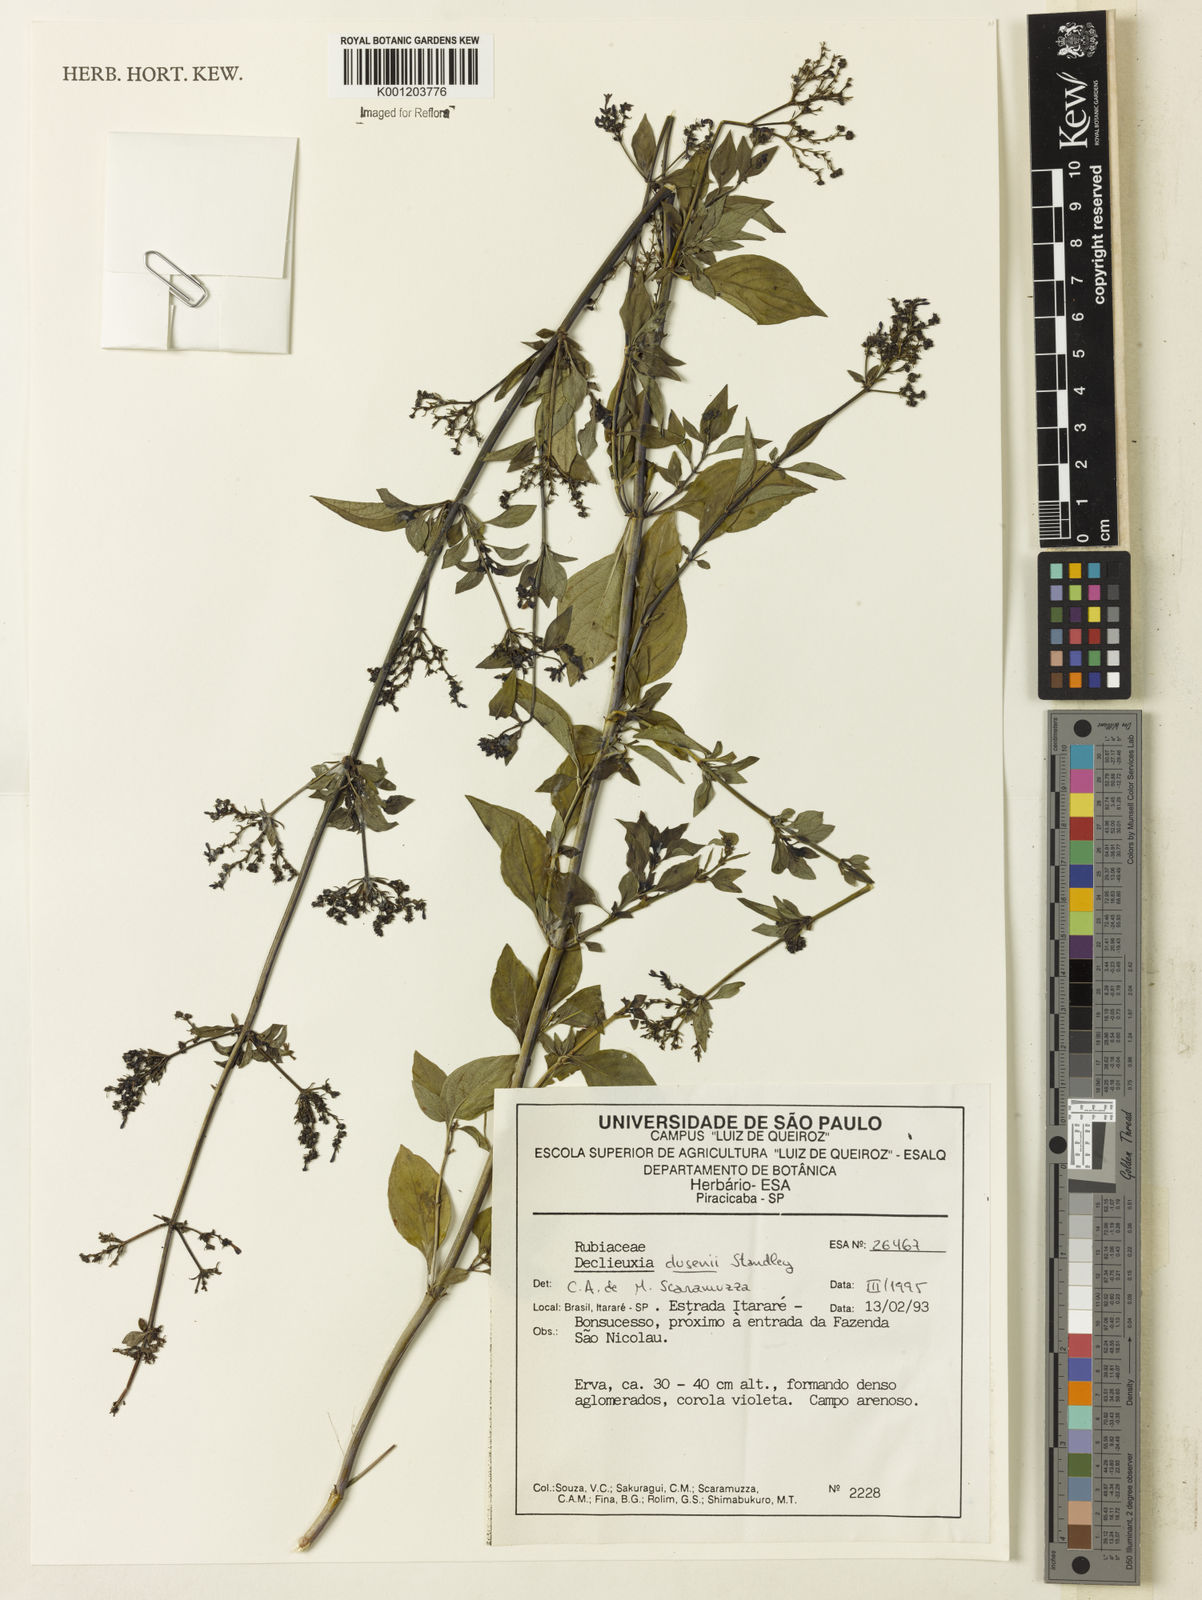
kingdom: Plantae
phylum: Tracheophyta
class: Magnoliopsida
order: Gentianales
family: Rubiaceae
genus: Declieuxia
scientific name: Declieuxia dusenii
